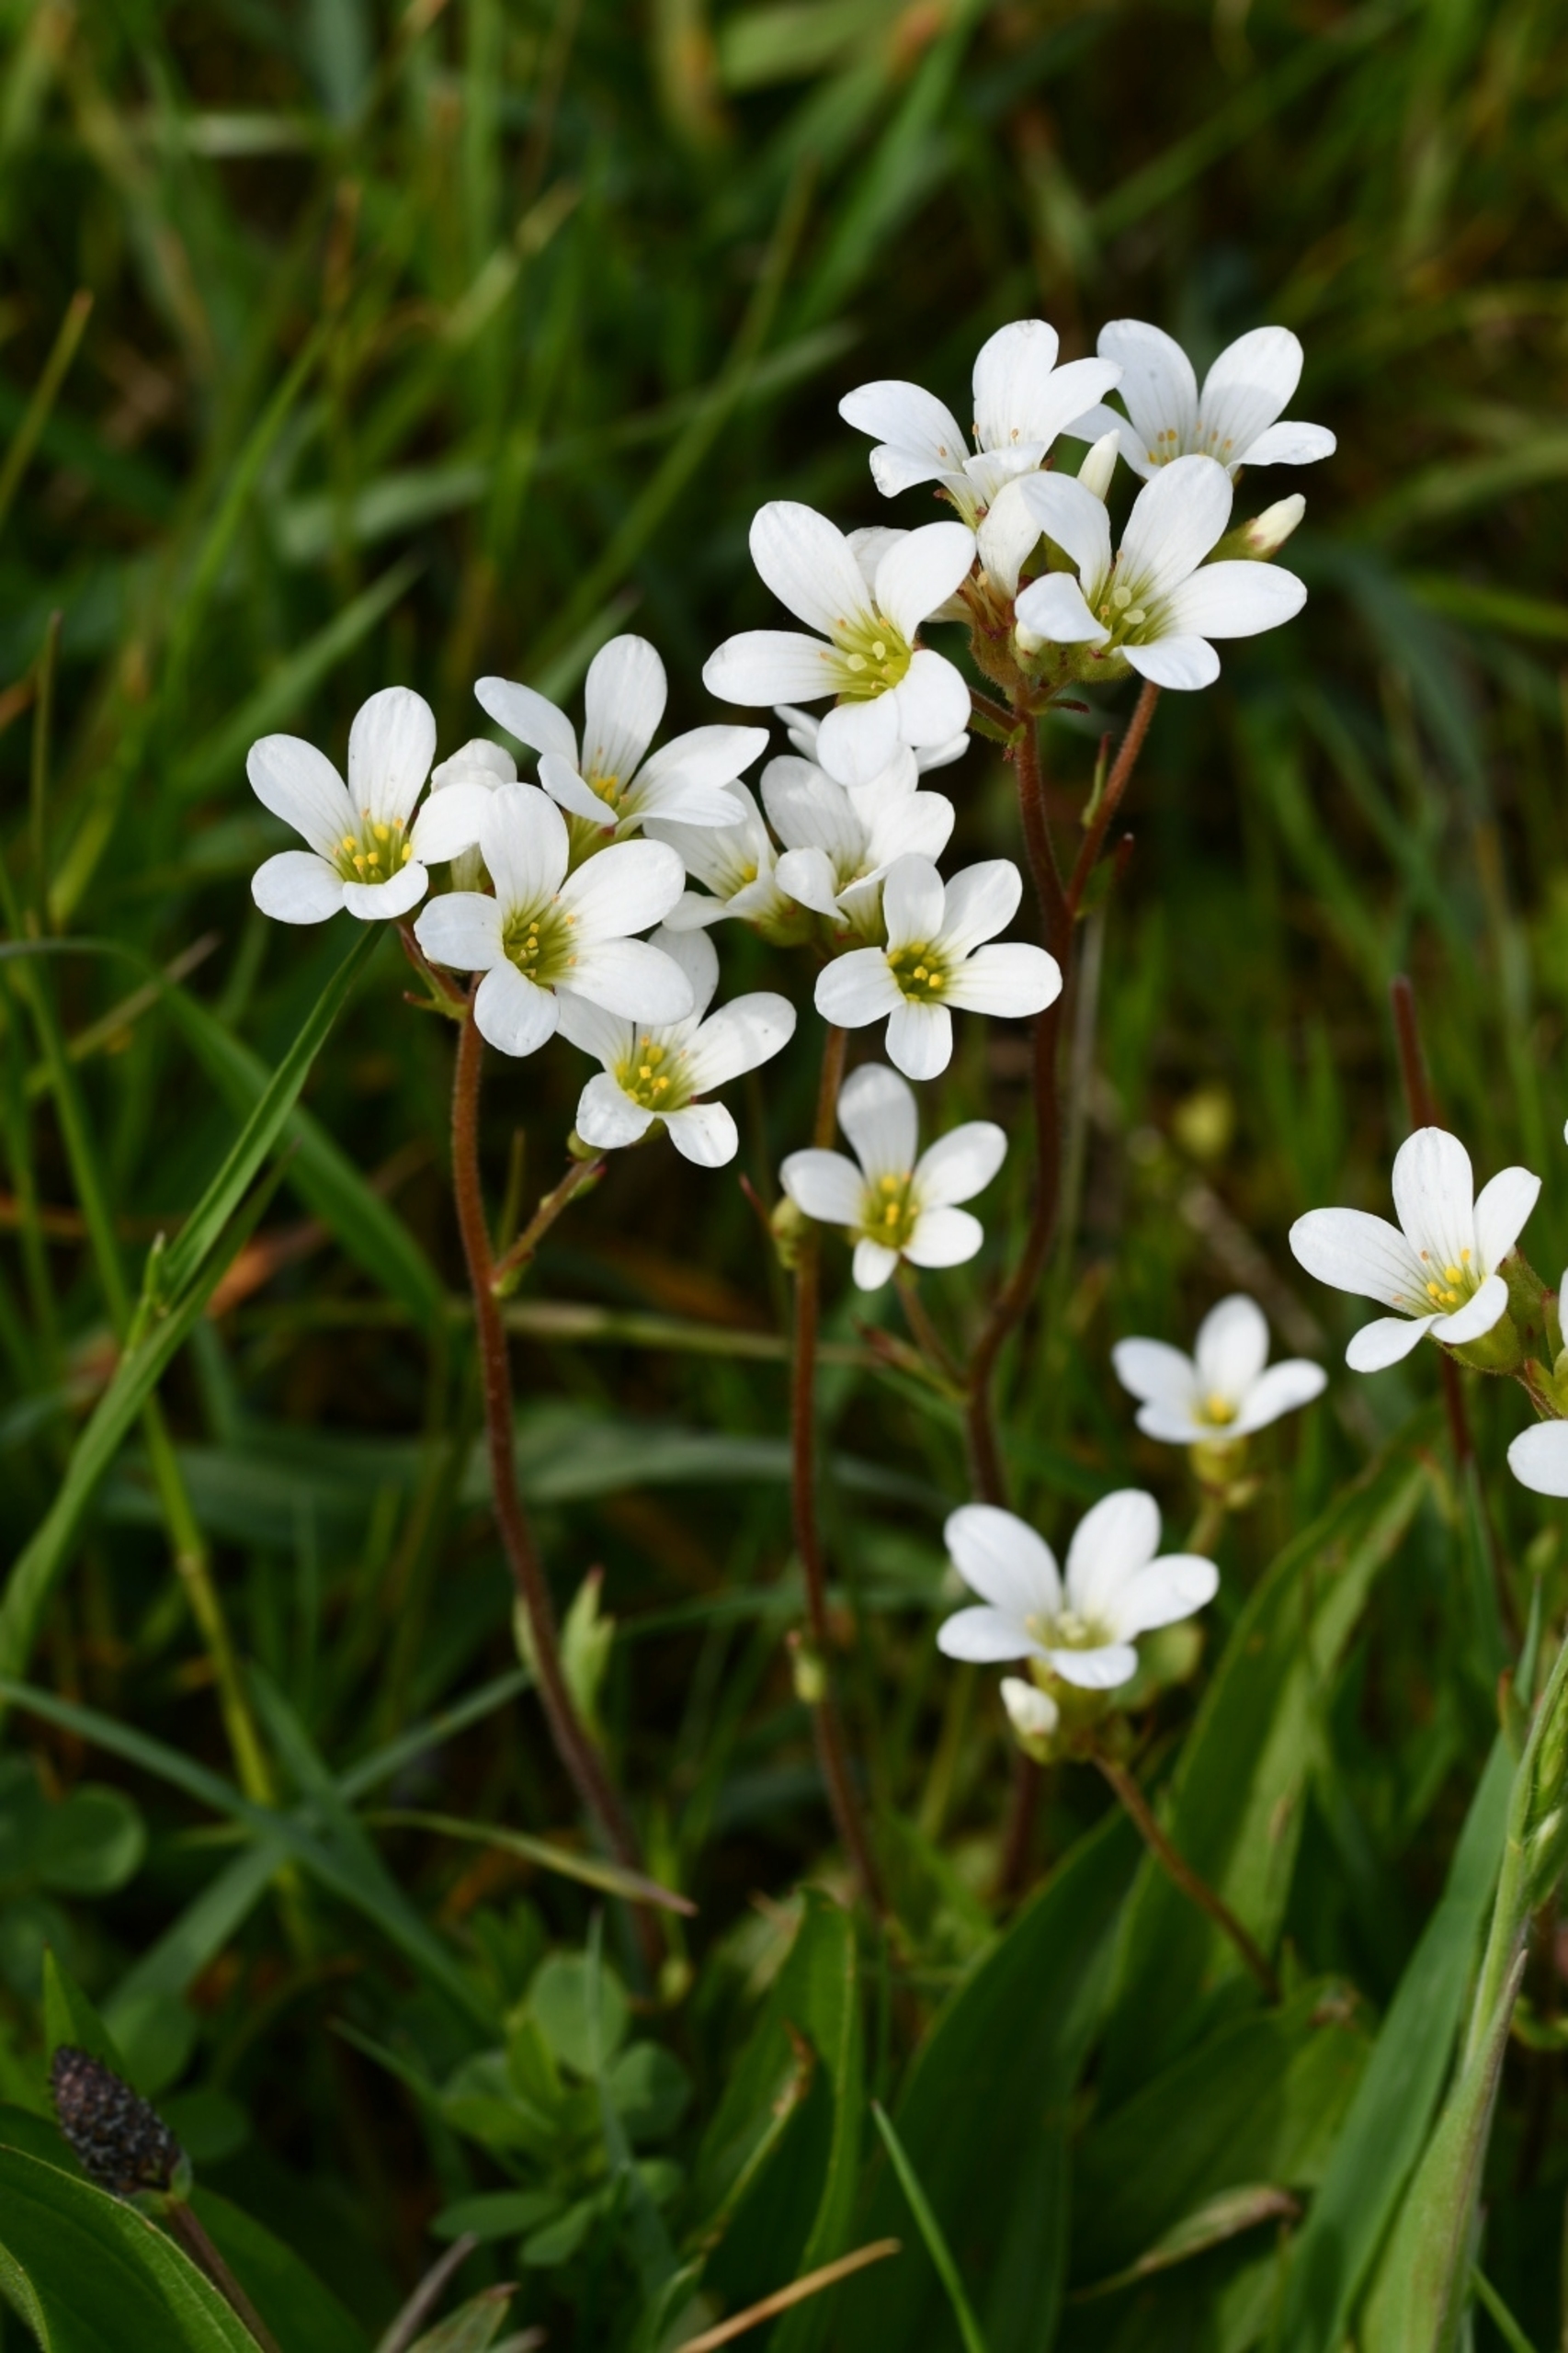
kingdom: Plantae
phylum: Tracheophyta
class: Magnoliopsida
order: Saxifragales
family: Saxifragaceae
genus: Saxifraga
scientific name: Saxifraga granulata
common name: Kornet stenbræk
